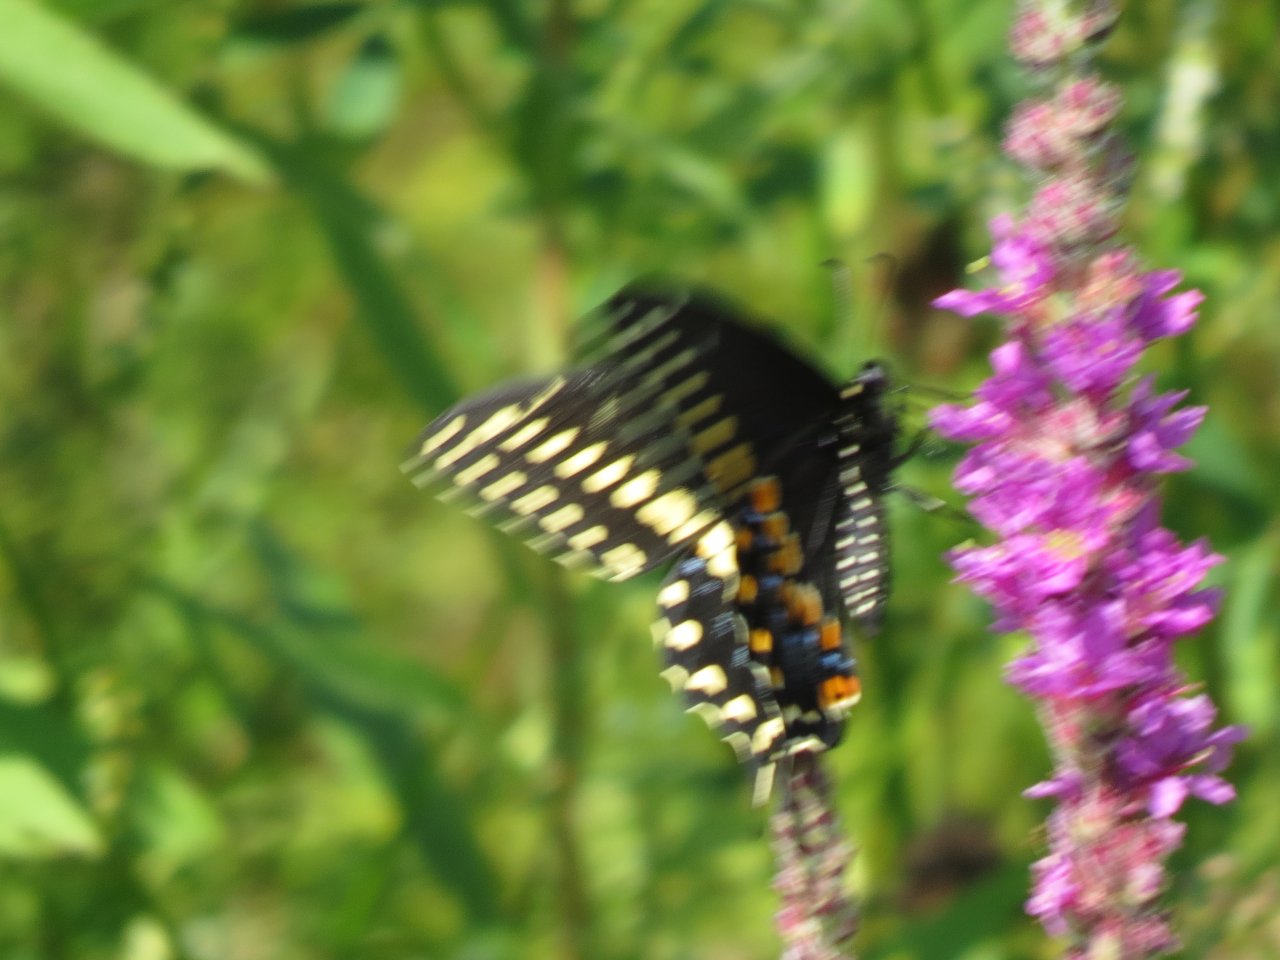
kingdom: Animalia
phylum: Arthropoda
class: Insecta
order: Lepidoptera
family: Papilionidae
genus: Papilio
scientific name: Papilio polyxenes
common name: Black Swallowtail
